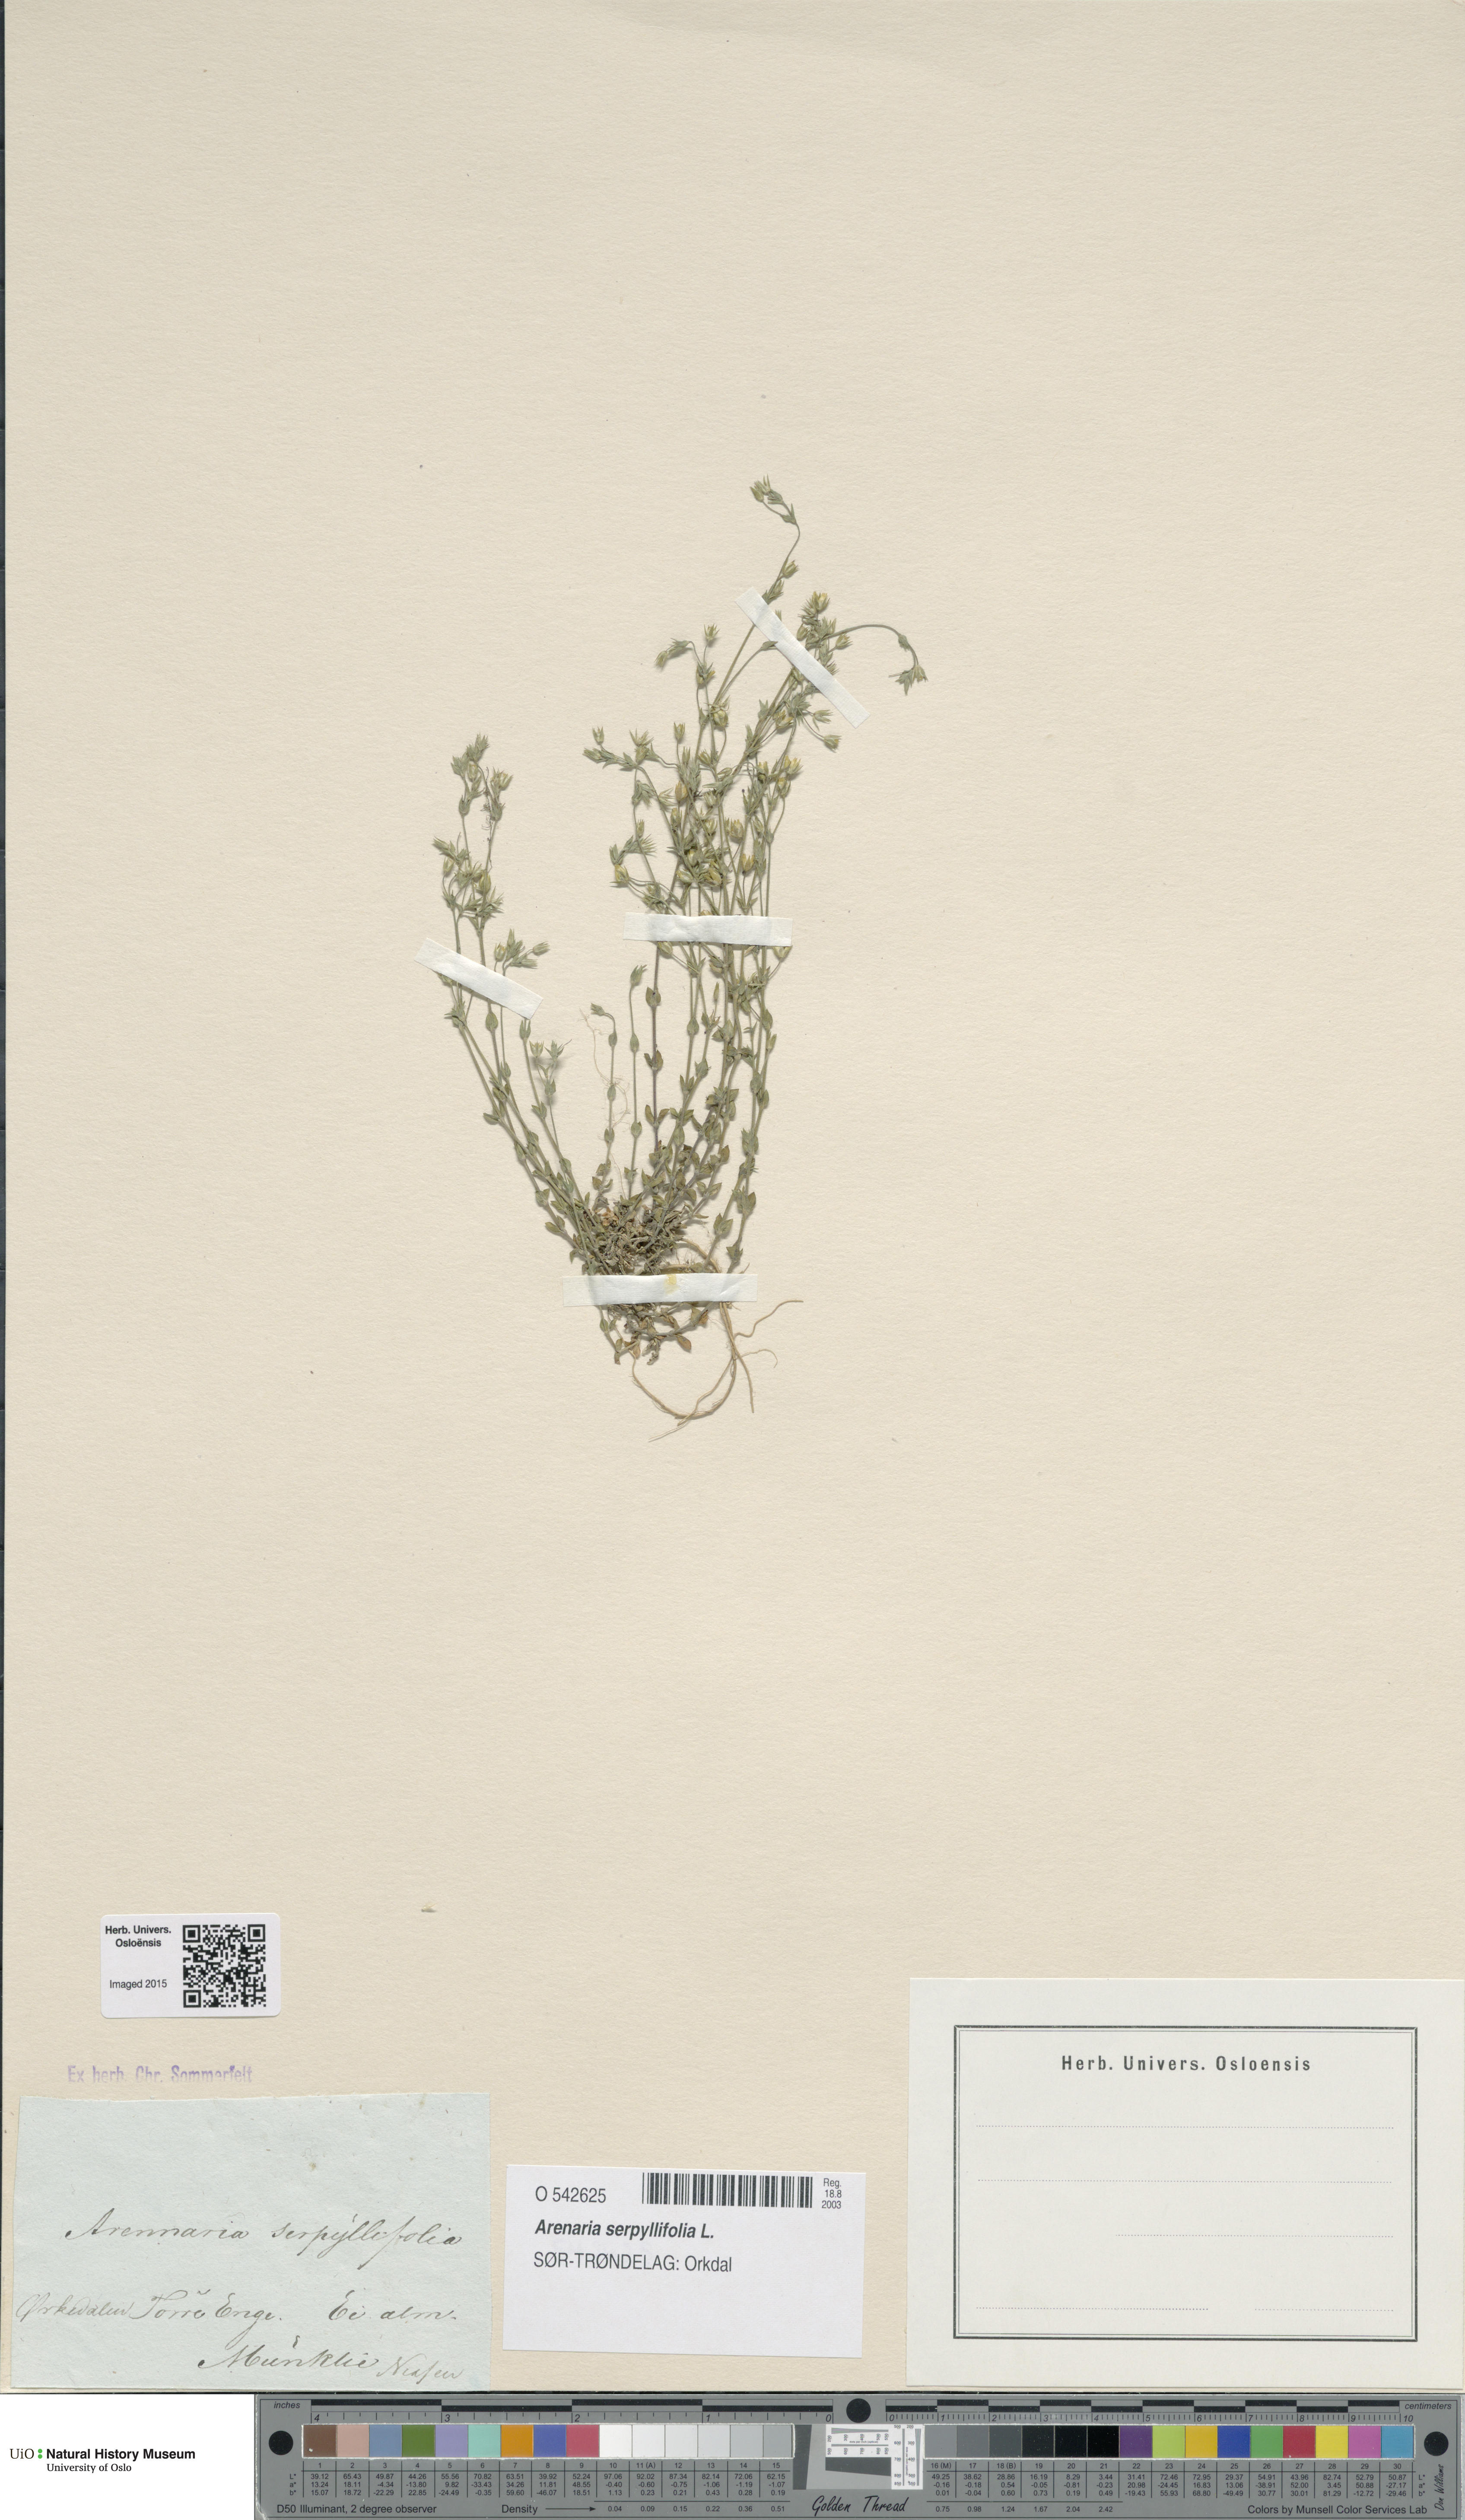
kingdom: Plantae
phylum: Tracheophyta
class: Magnoliopsida
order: Caryophyllales
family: Caryophyllaceae
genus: Arenaria
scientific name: Arenaria serpyllifolia
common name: Thyme-leaved sandwort
